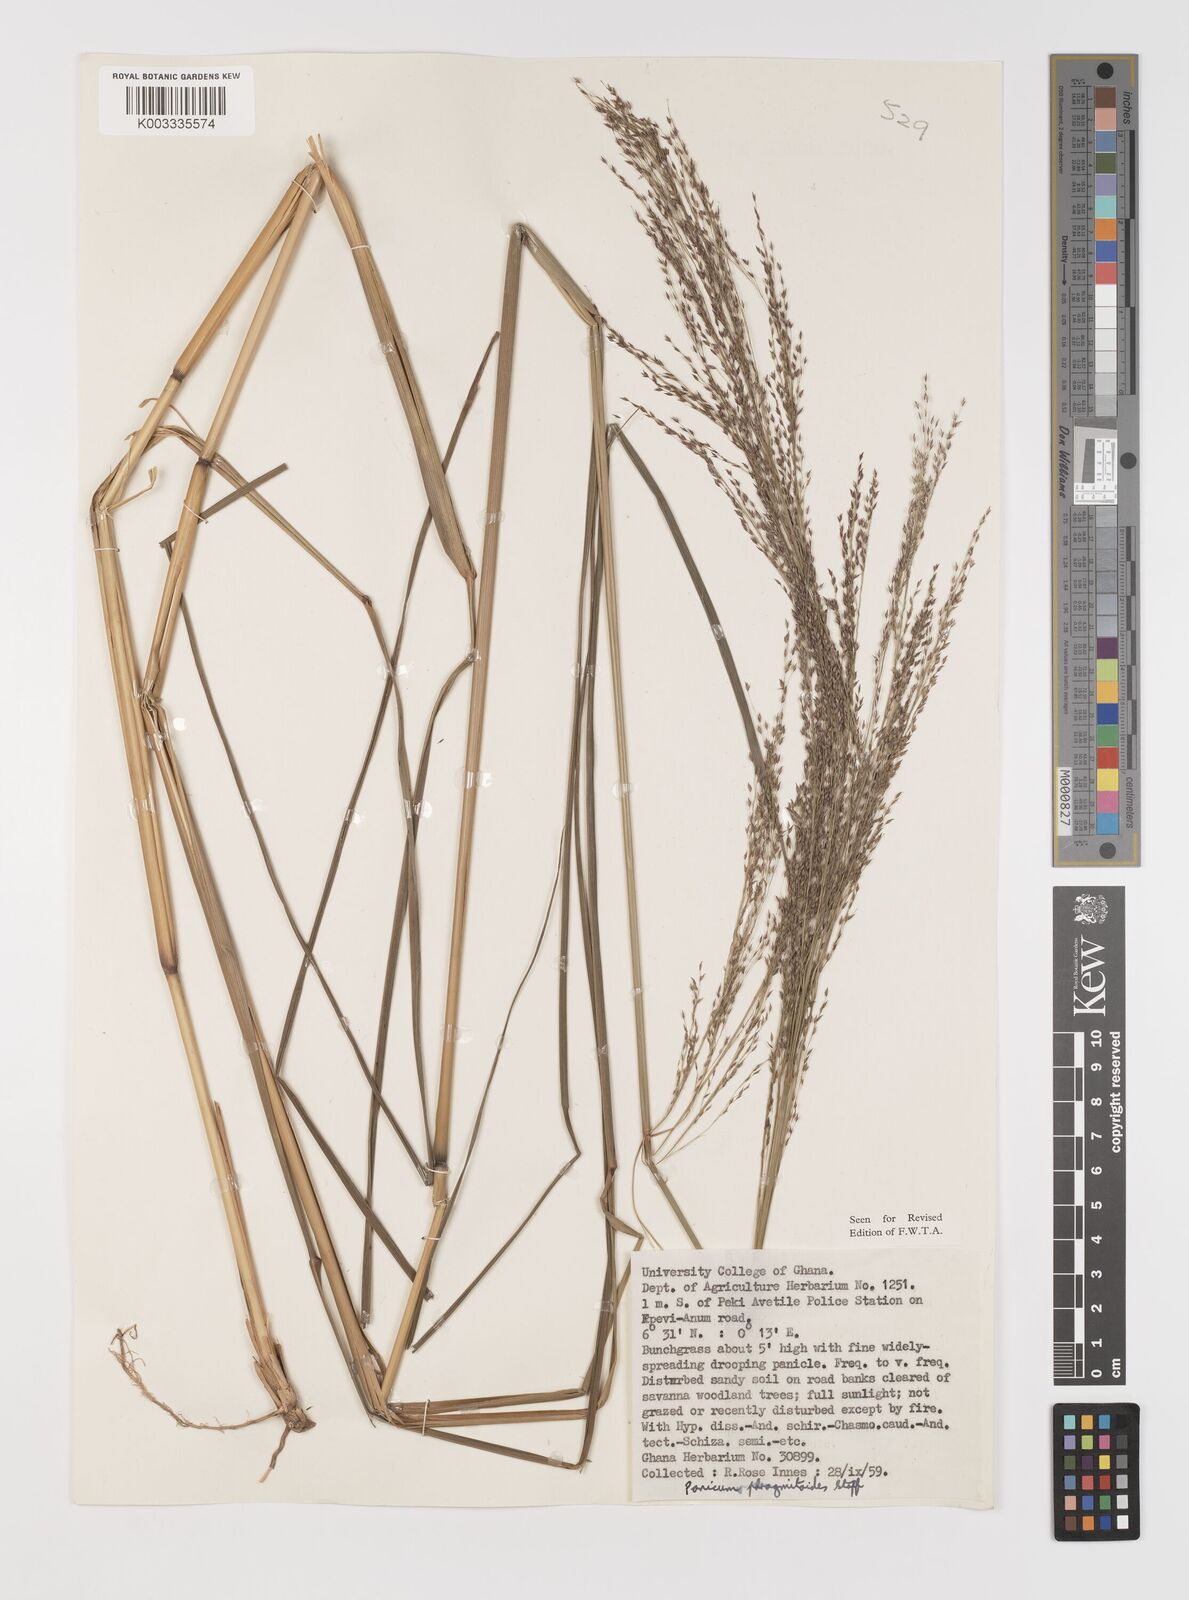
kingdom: Plantae
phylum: Tracheophyta
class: Liliopsida
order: Poales
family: Poaceae
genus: Panicum
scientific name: Panicum phragmitoides
